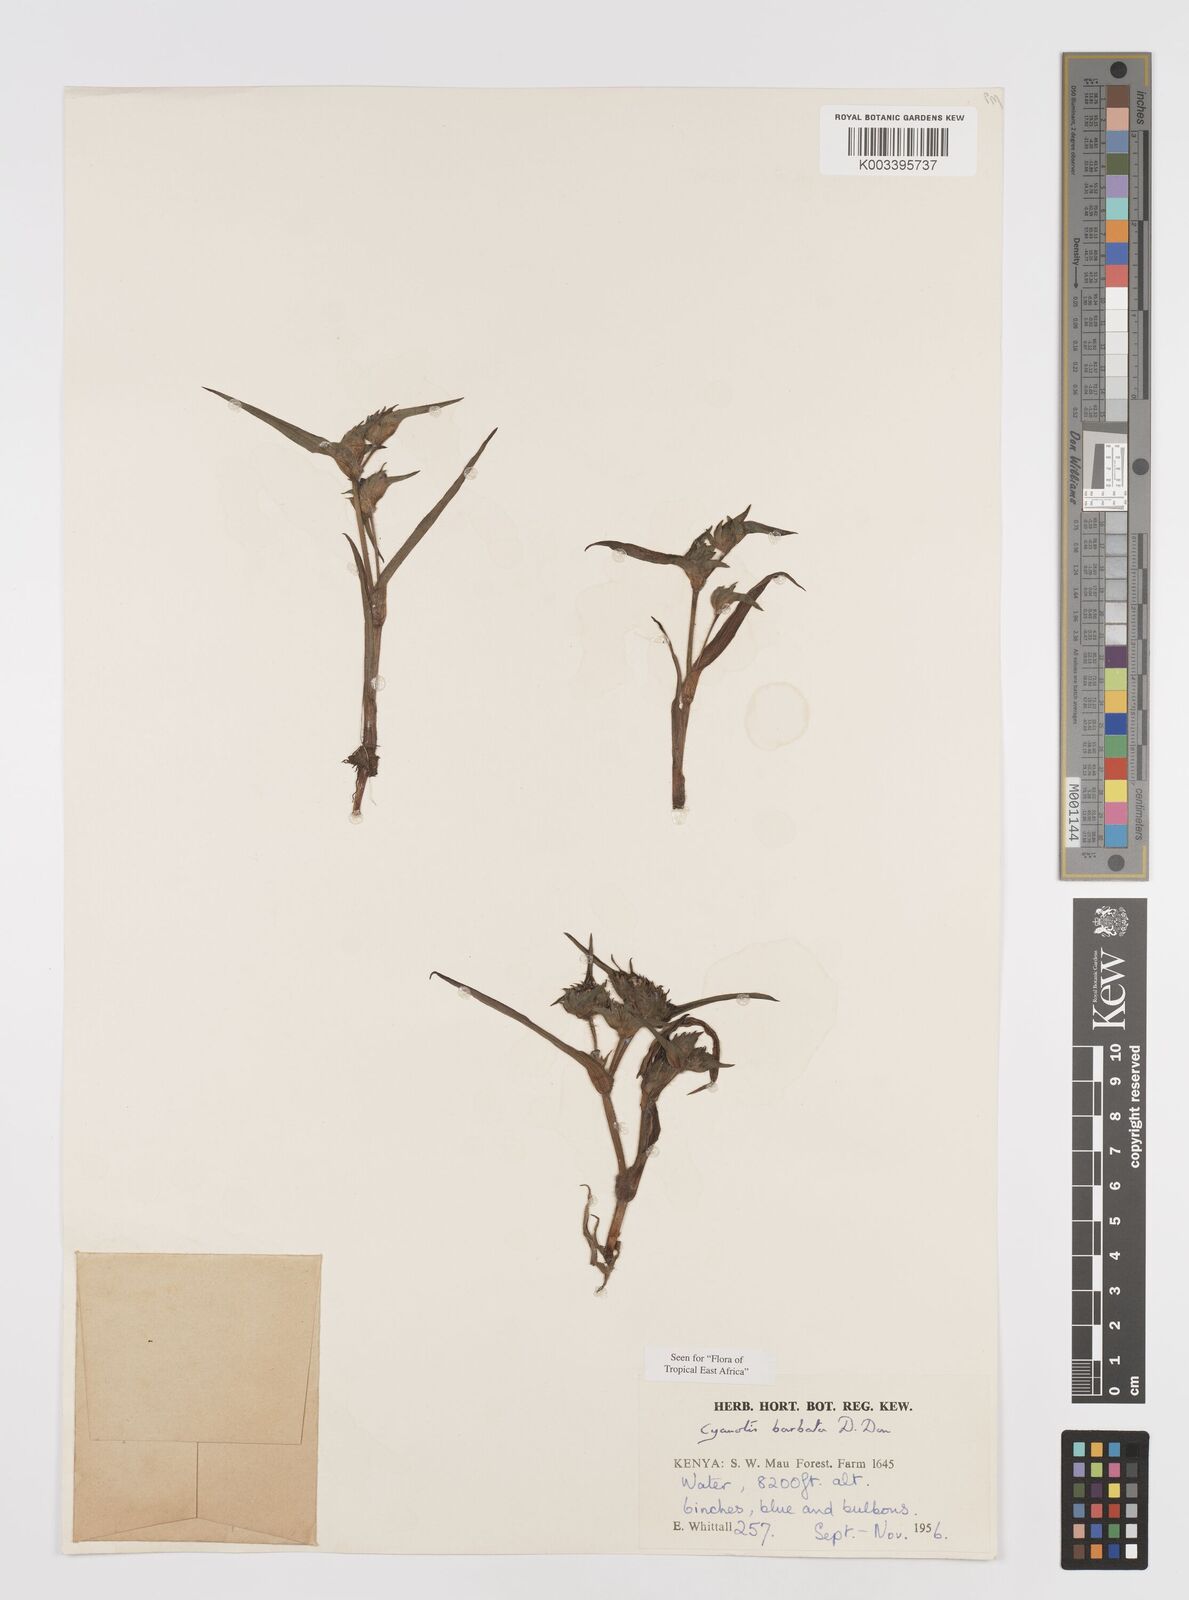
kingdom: Plantae
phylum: Tracheophyta
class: Liliopsida
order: Commelinales
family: Commelinaceae
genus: Cyanotis
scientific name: Cyanotis vaga
